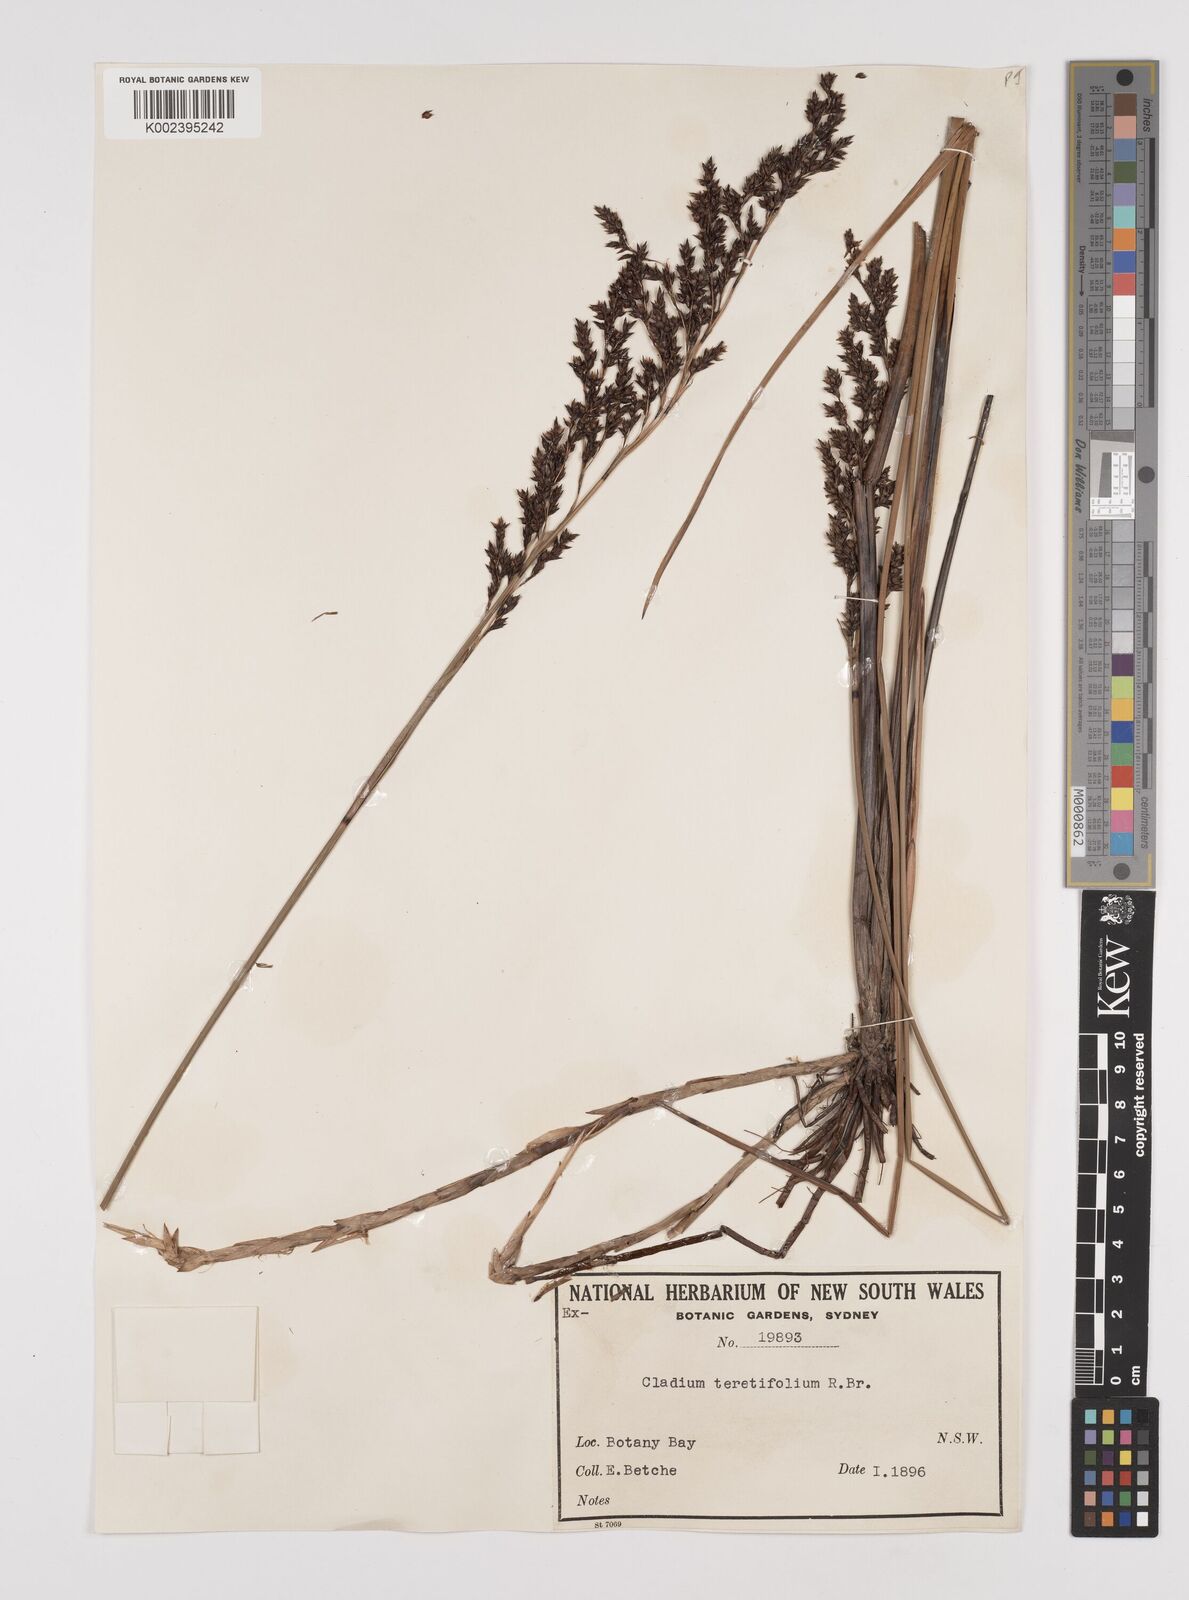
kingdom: Plantae
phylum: Tracheophyta
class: Liliopsida
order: Poales
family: Cyperaceae
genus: Machaerina
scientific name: Machaerina teretifolia
